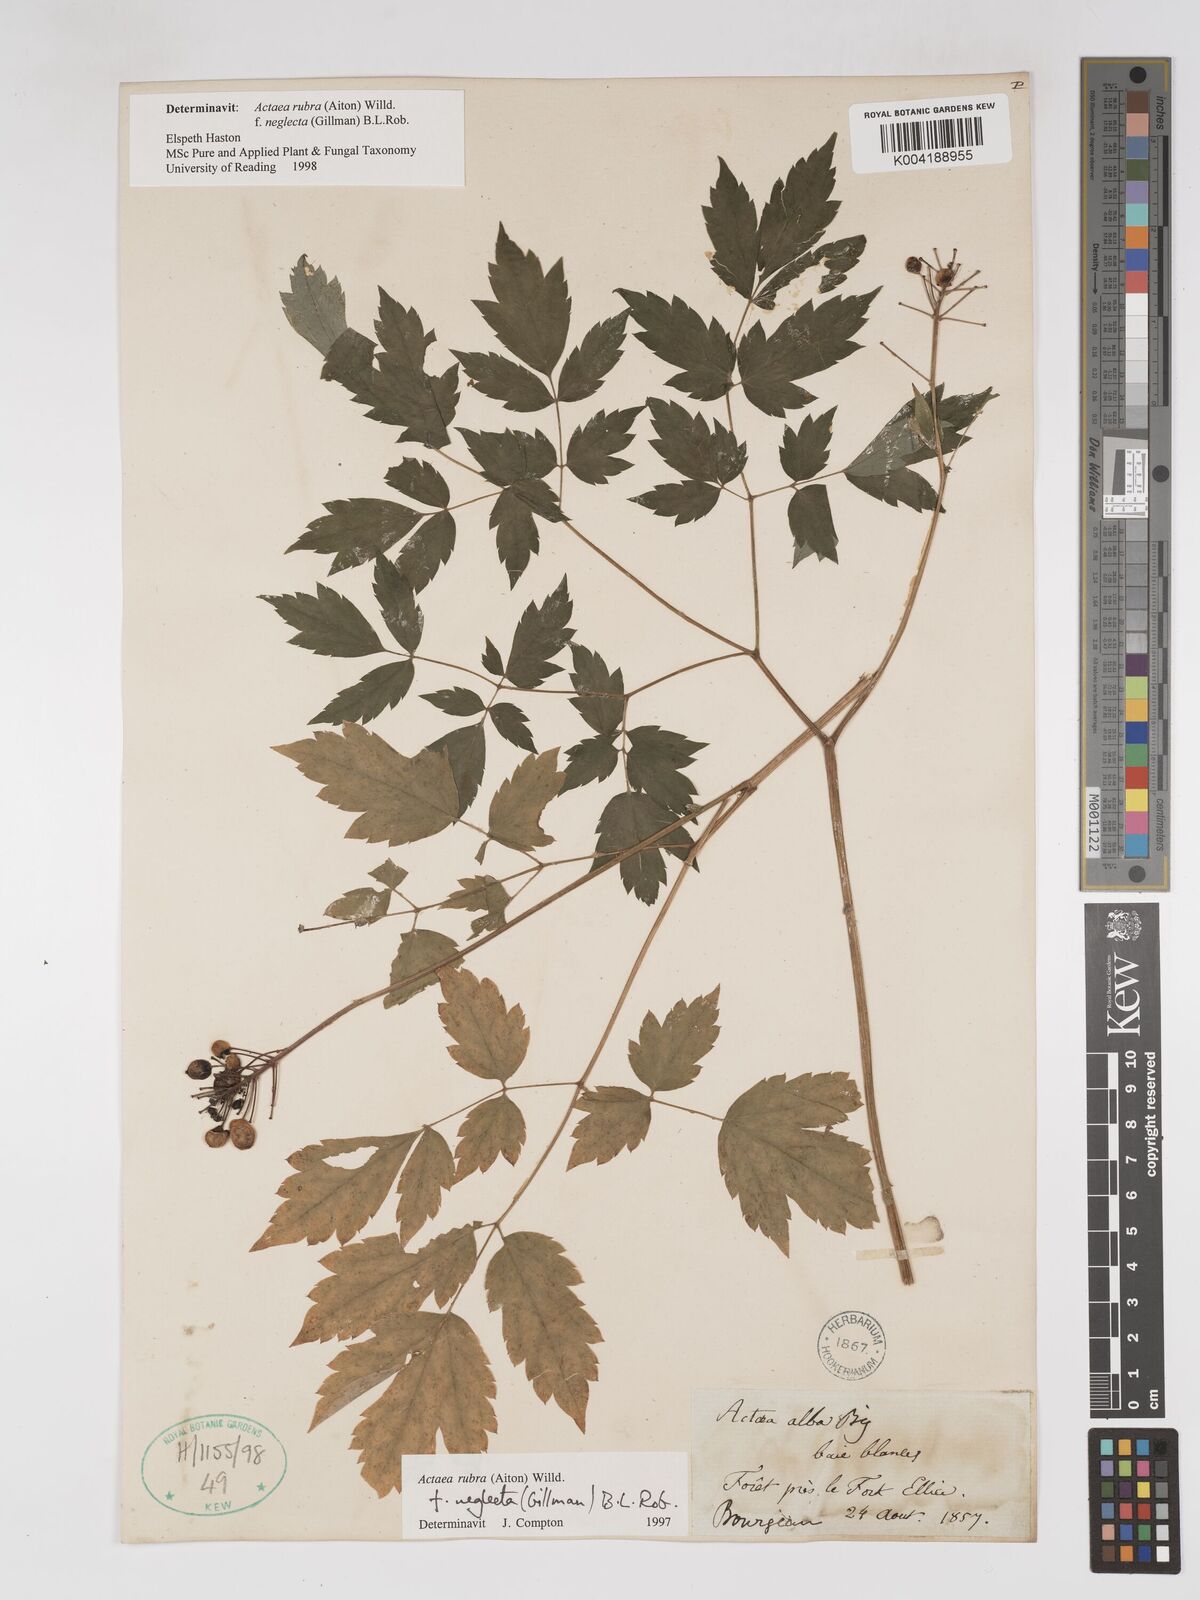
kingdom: Plantae
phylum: Tracheophyta
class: Magnoliopsida
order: Ranunculales
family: Ranunculaceae
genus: Actaea
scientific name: Actaea rubra
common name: Red baneberry
